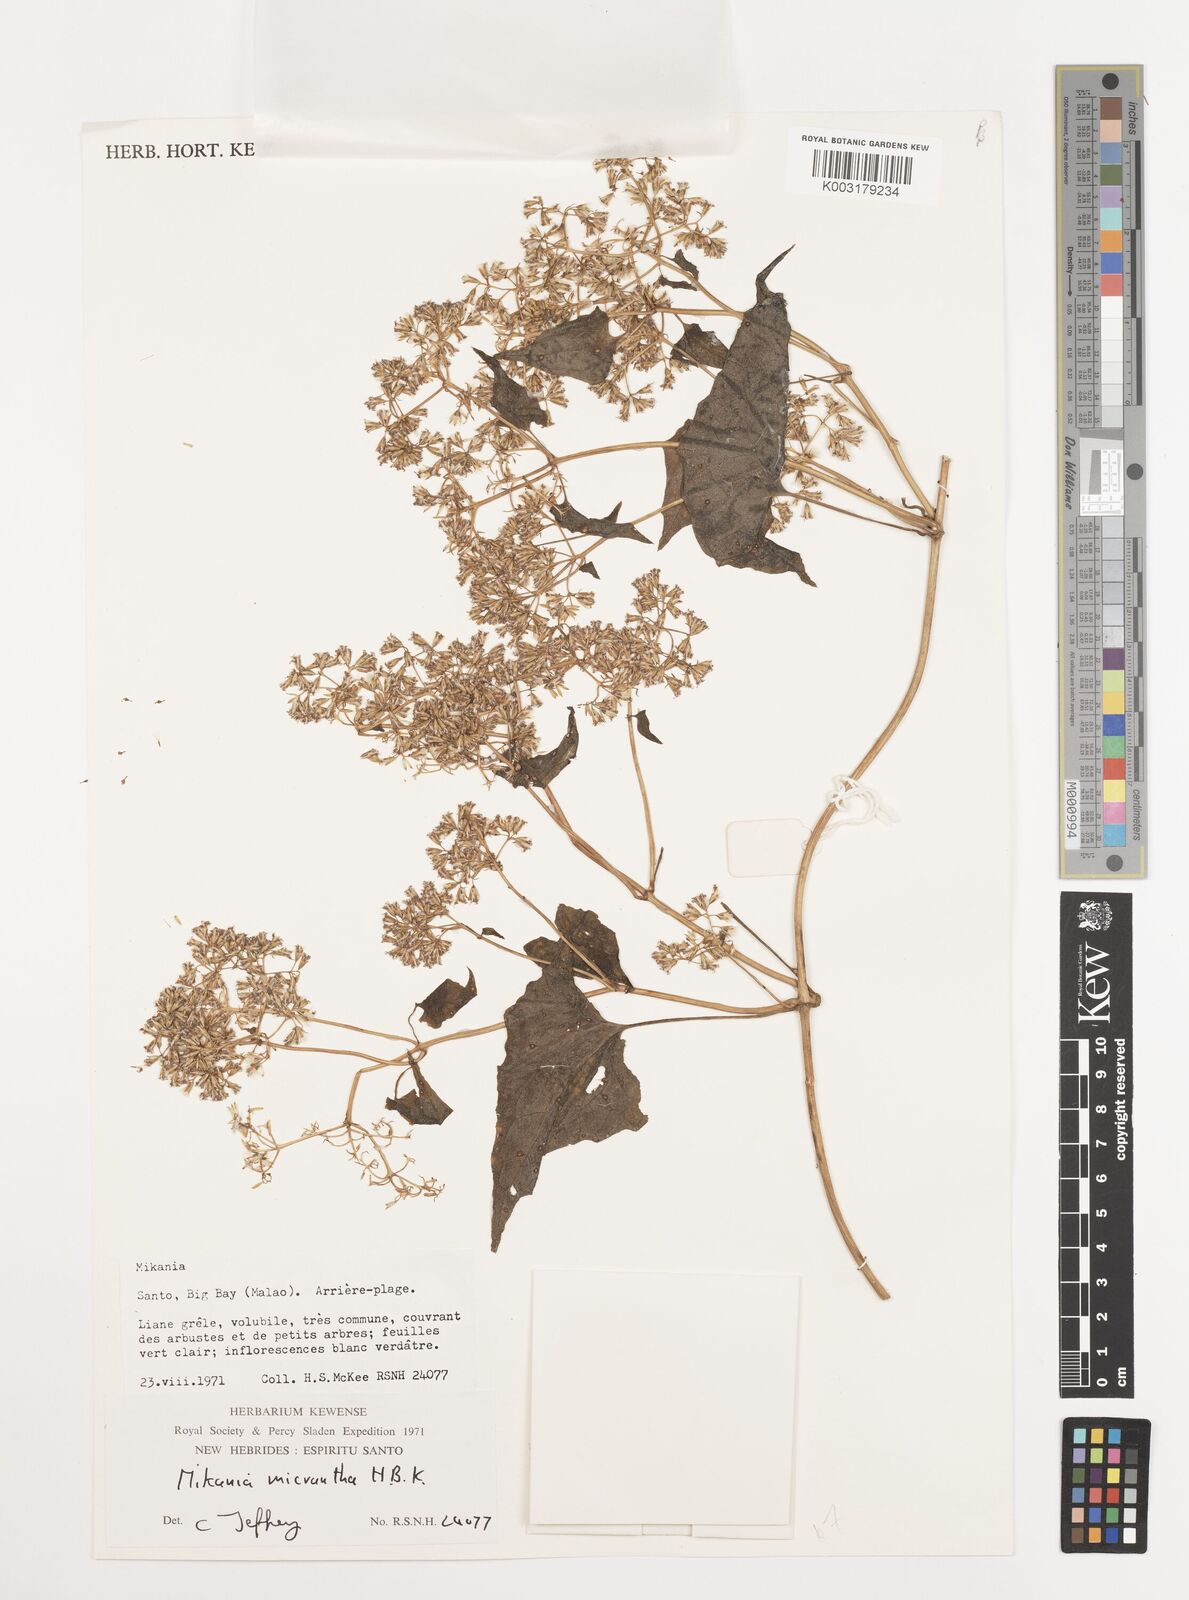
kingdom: Plantae
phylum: Tracheophyta
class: Magnoliopsida
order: Asterales
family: Asteraceae
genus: Mikania
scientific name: Mikania micrantha
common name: Mile-a-minute
